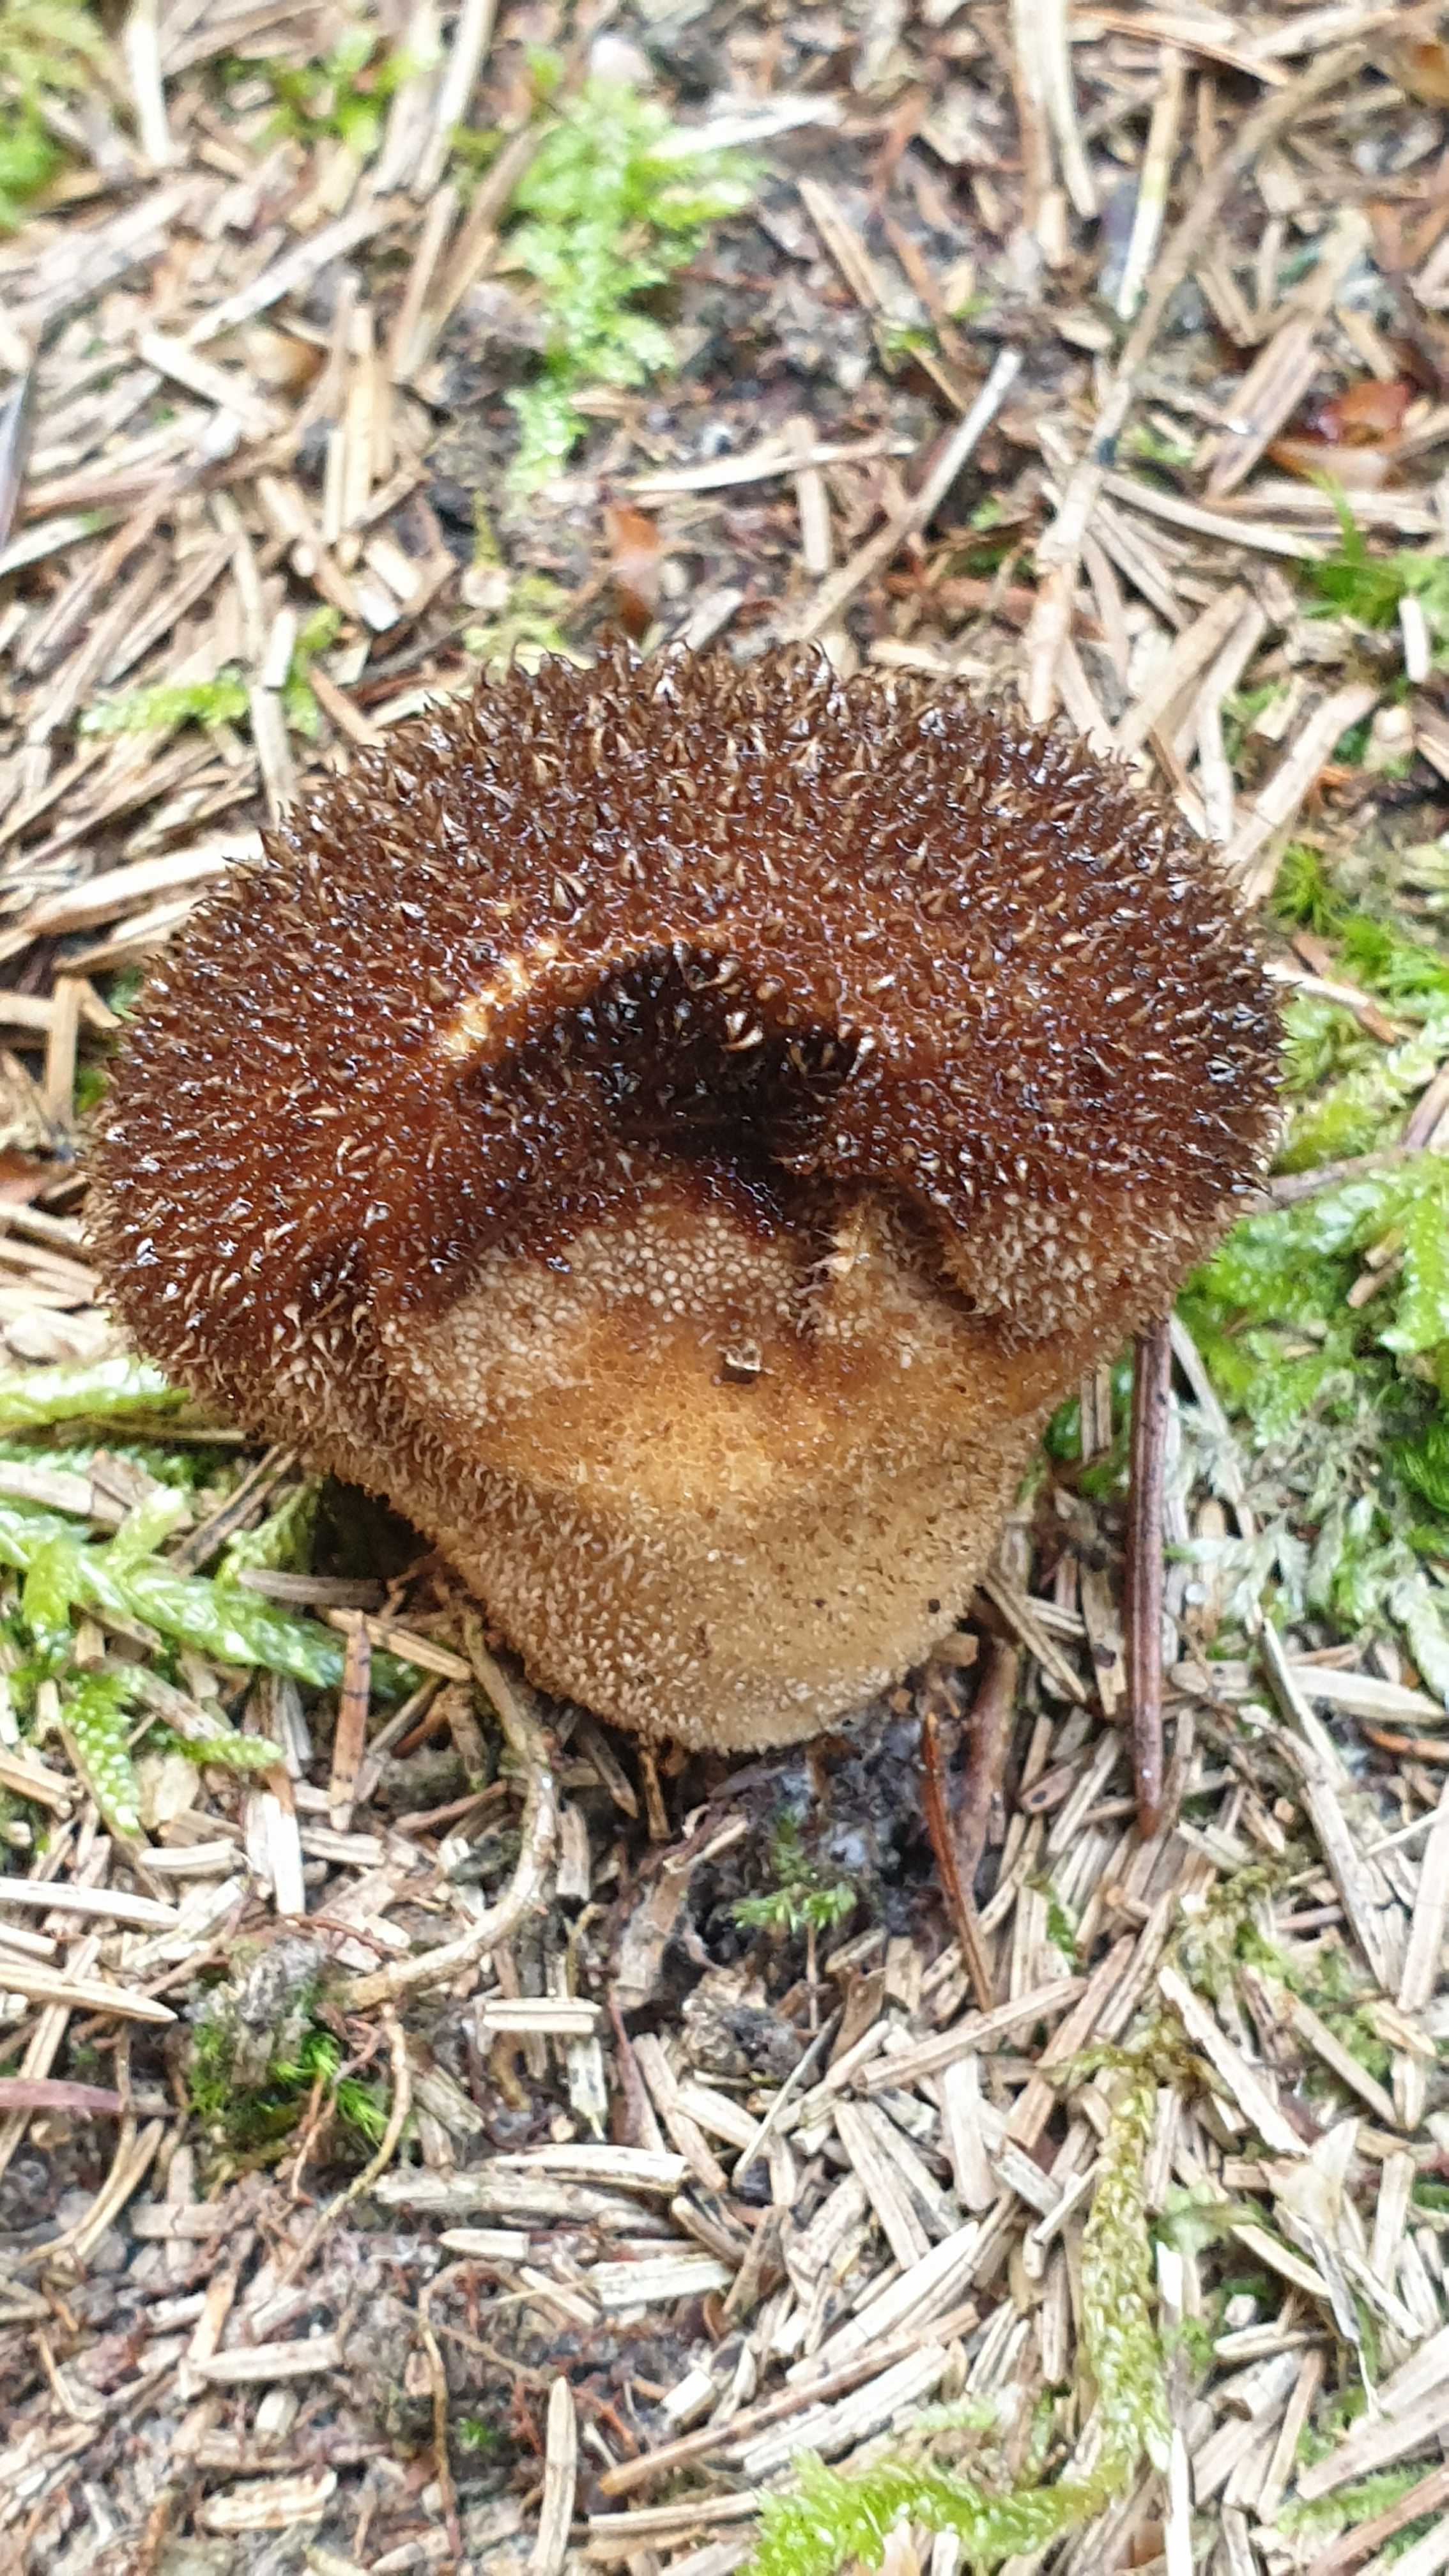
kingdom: Fungi
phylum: Basidiomycota
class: Agaricomycetes
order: Agaricales
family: Lycoperdaceae
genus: Lycoperdon
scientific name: Lycoperdon nigrescens
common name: sortagtig støvbold
